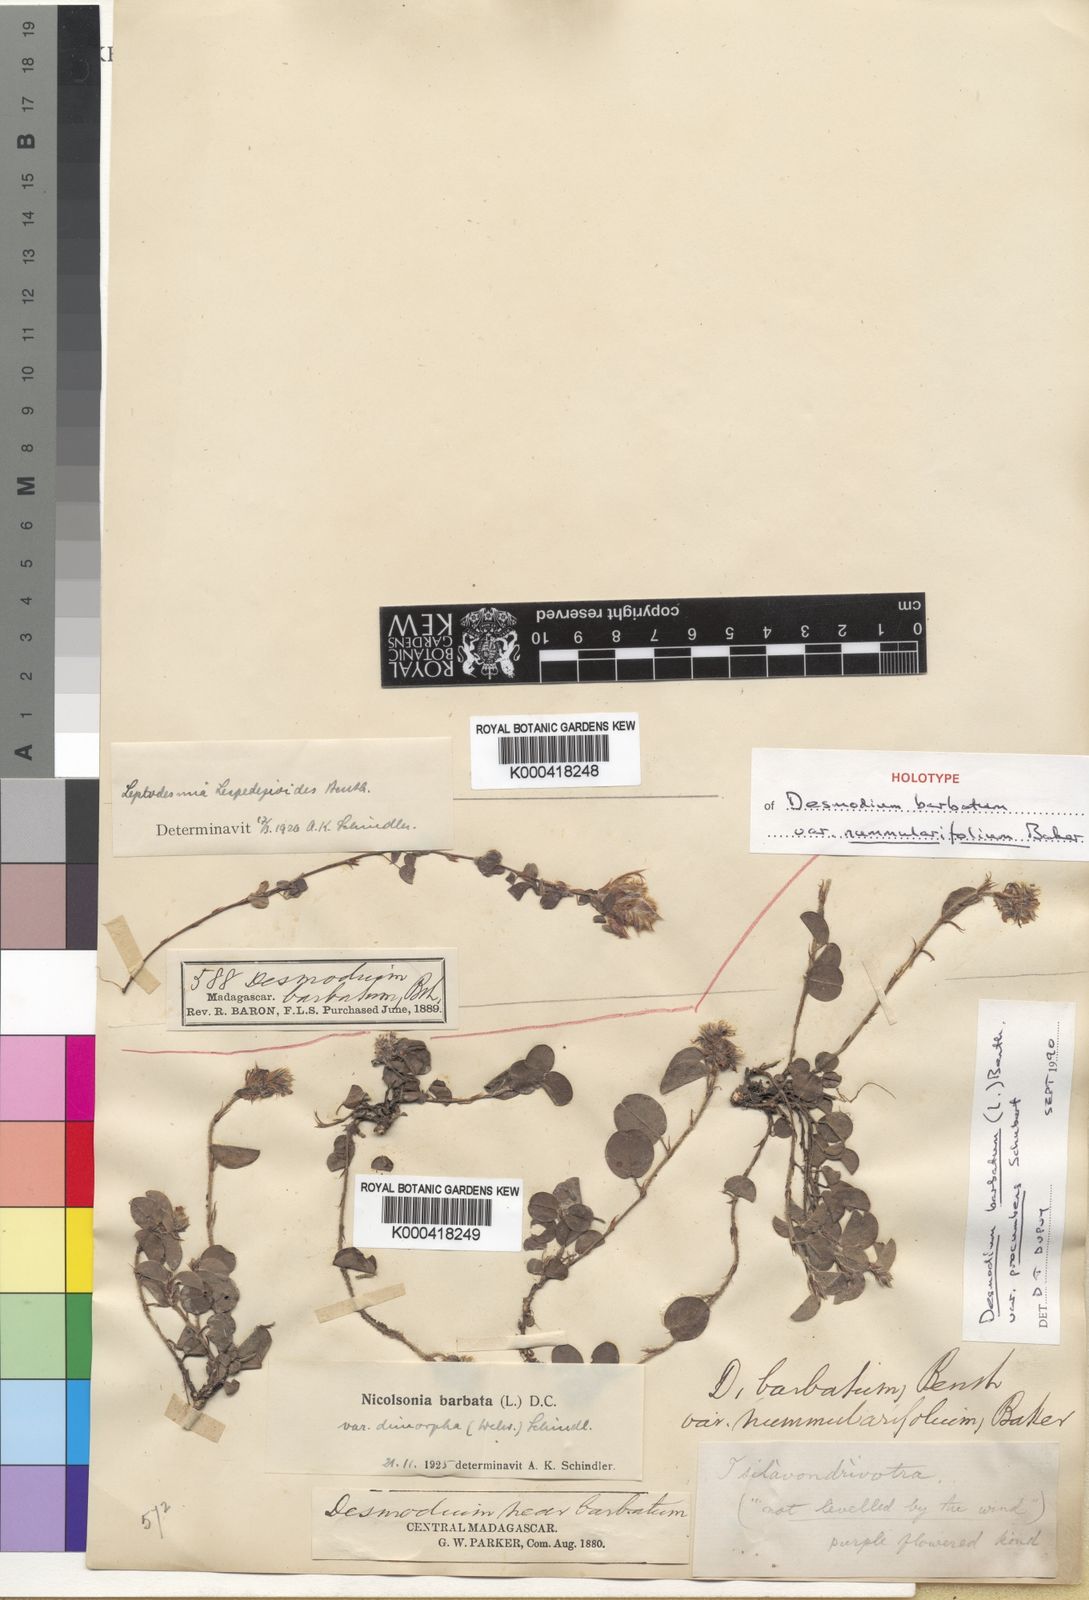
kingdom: Plantae
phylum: Tracheophyta
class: Magnoliopsida
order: Fabales
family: Fabaceae
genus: Grona
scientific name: Grona barbata
